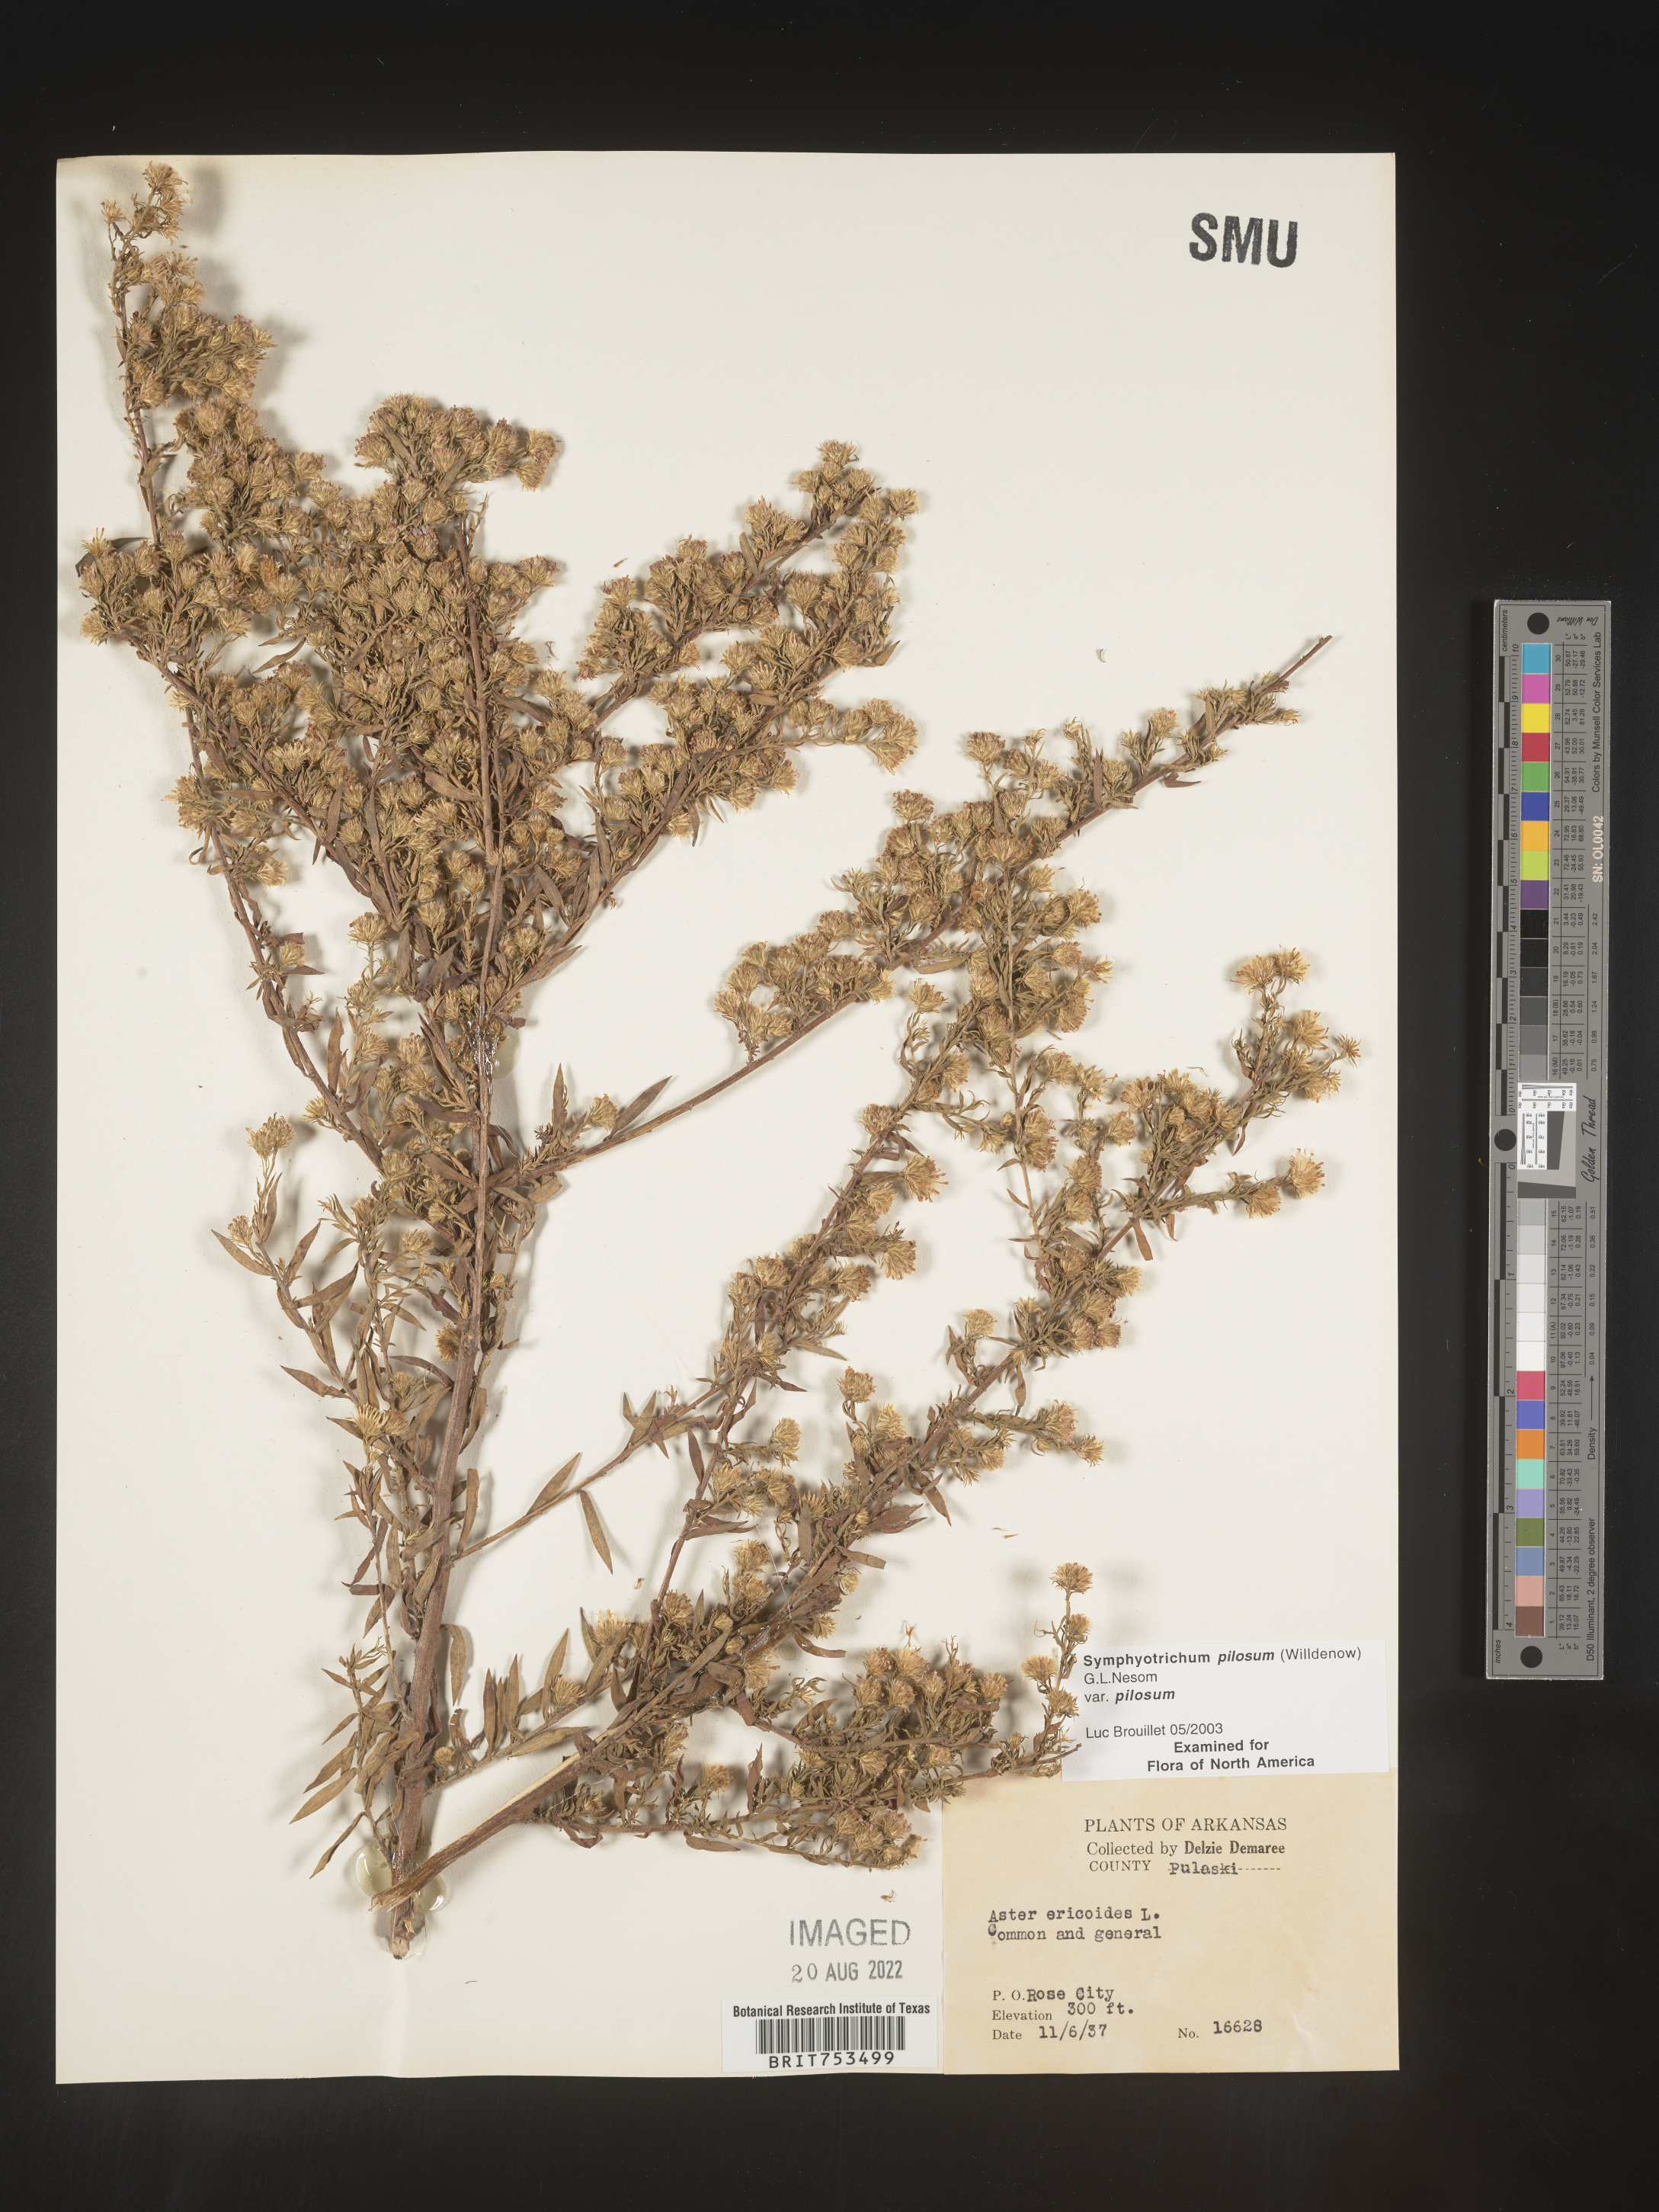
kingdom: Plantae
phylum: Tracheophyta
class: Magnoliopsida
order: Asterales
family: Asteraceae
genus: Symphyotrichum
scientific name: Symphyotrichum pilosum
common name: Awl aster
